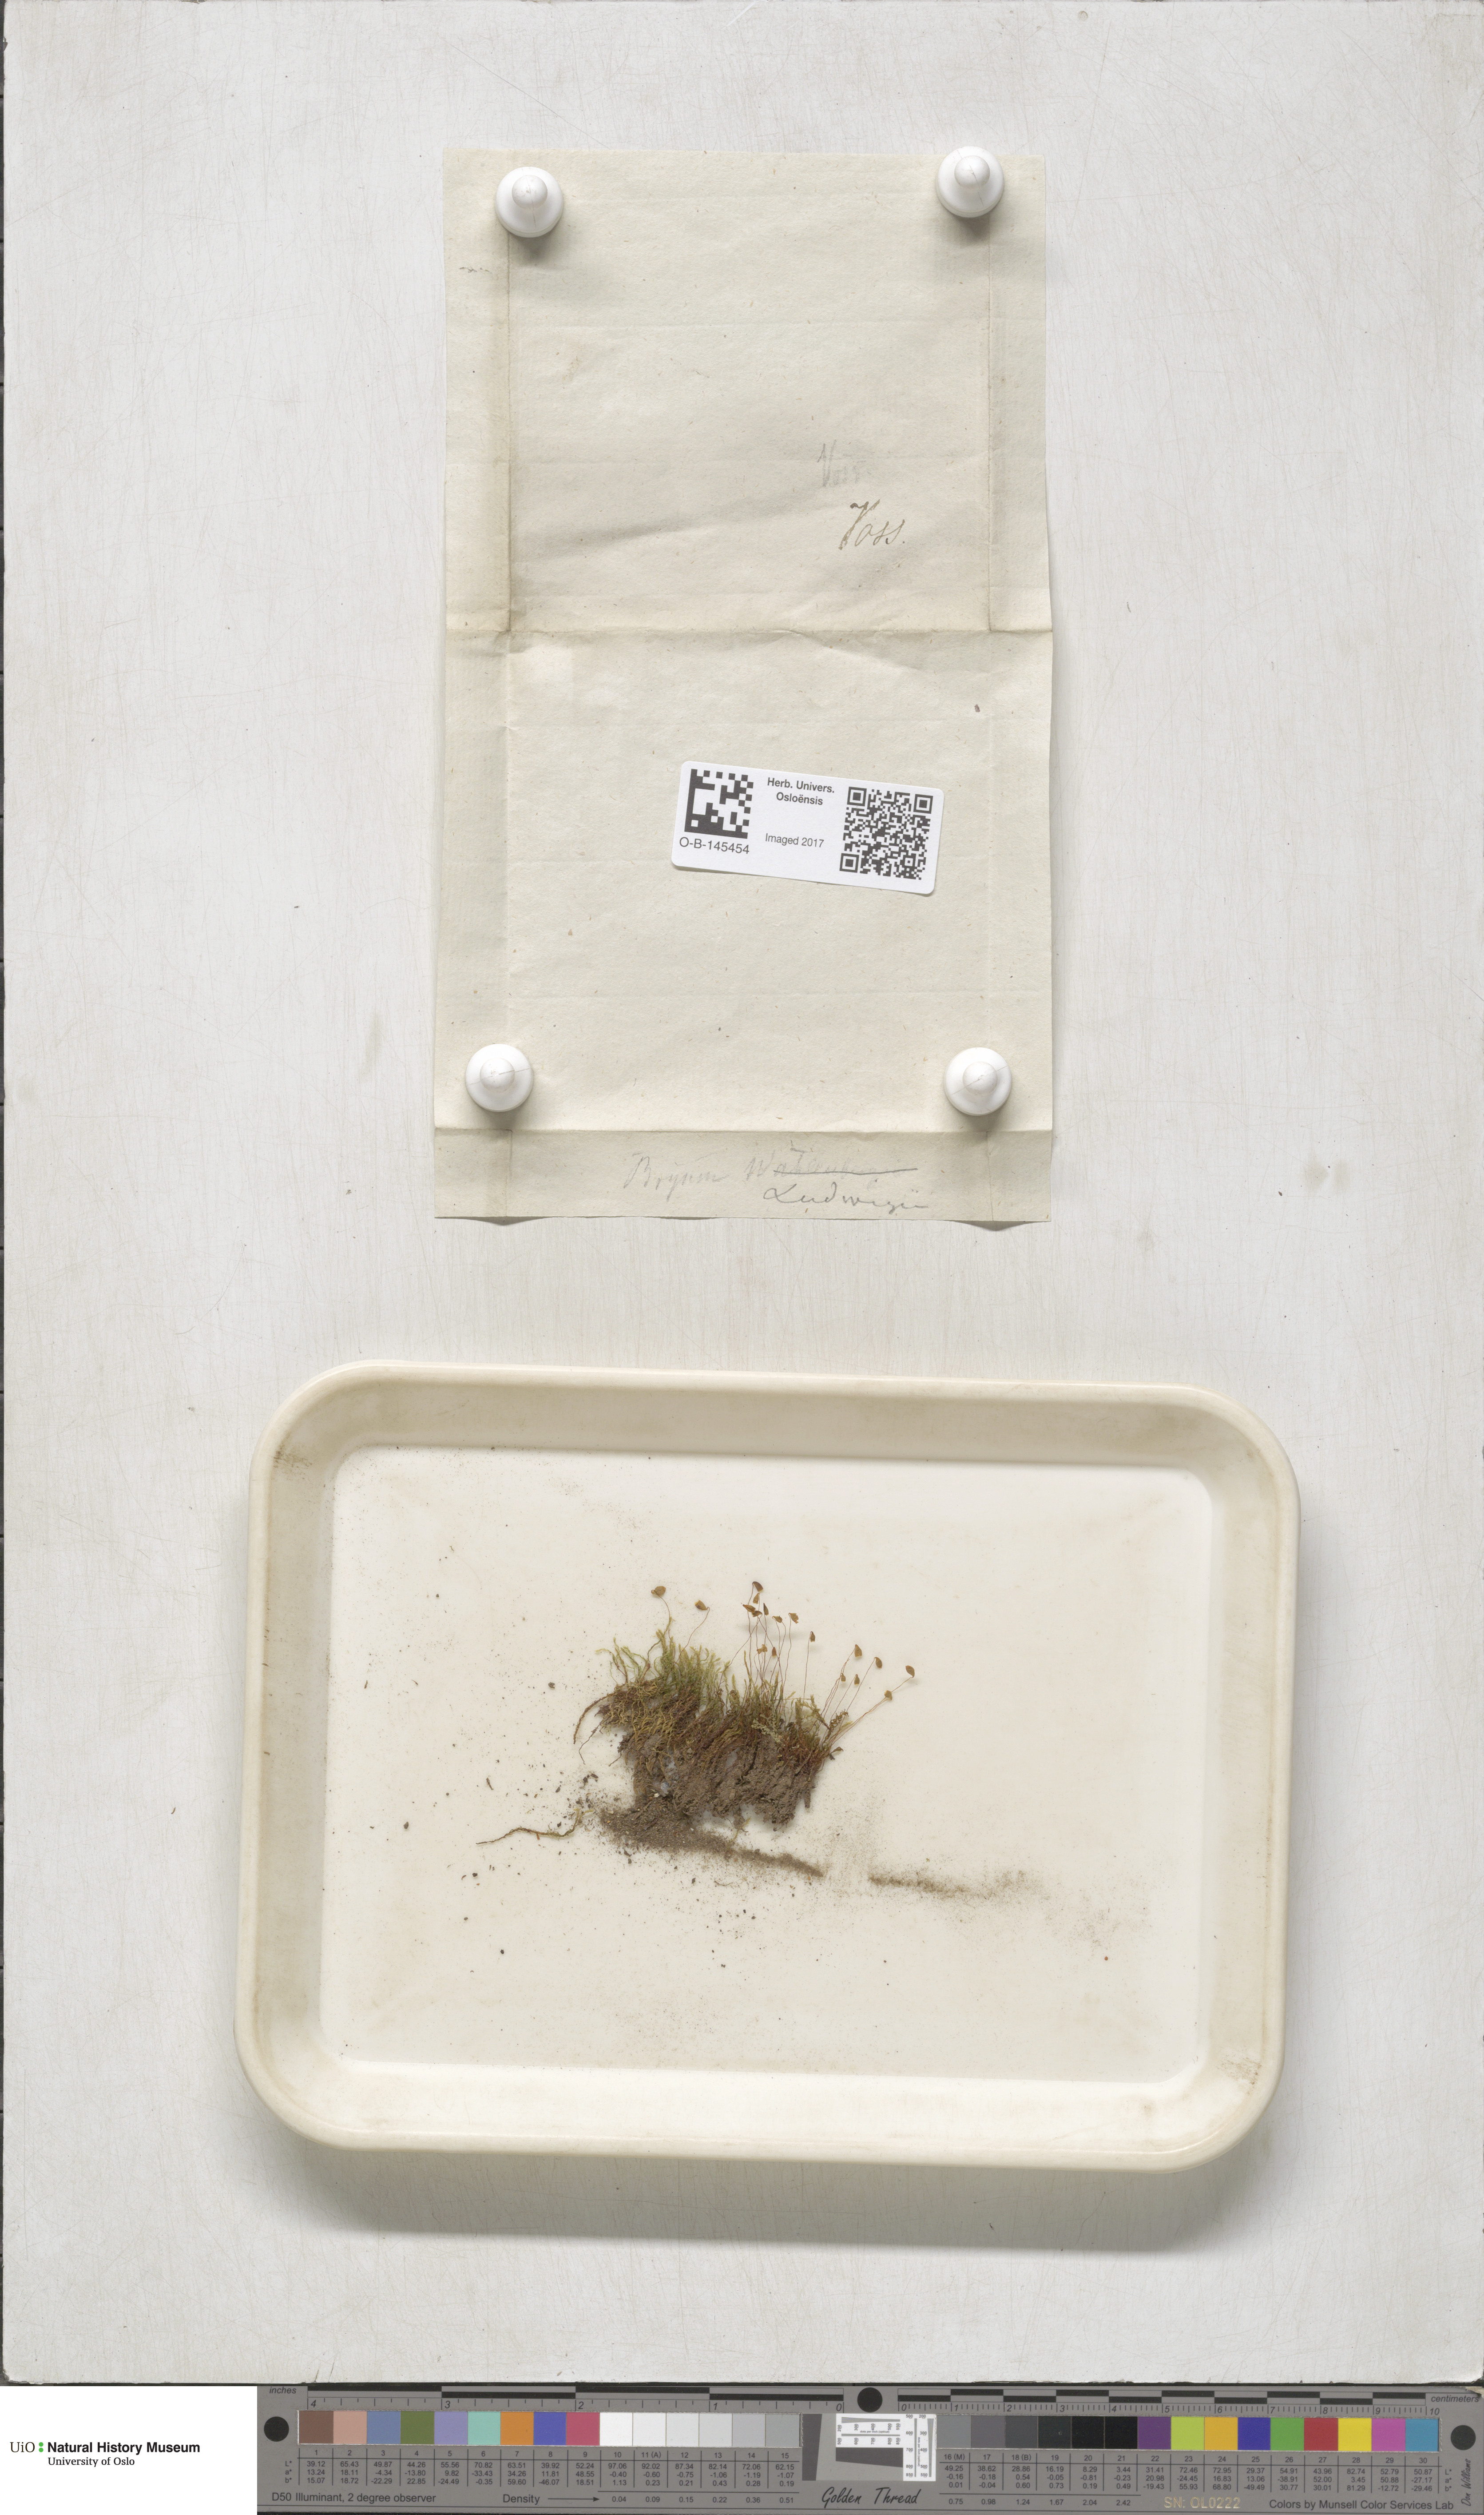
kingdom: Plantae
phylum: Bryophyta
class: Bryopsida
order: Bryales
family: Mniaceae
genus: Pohlia
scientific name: Pohlia ludwigii
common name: Ludwig's thread-moss
